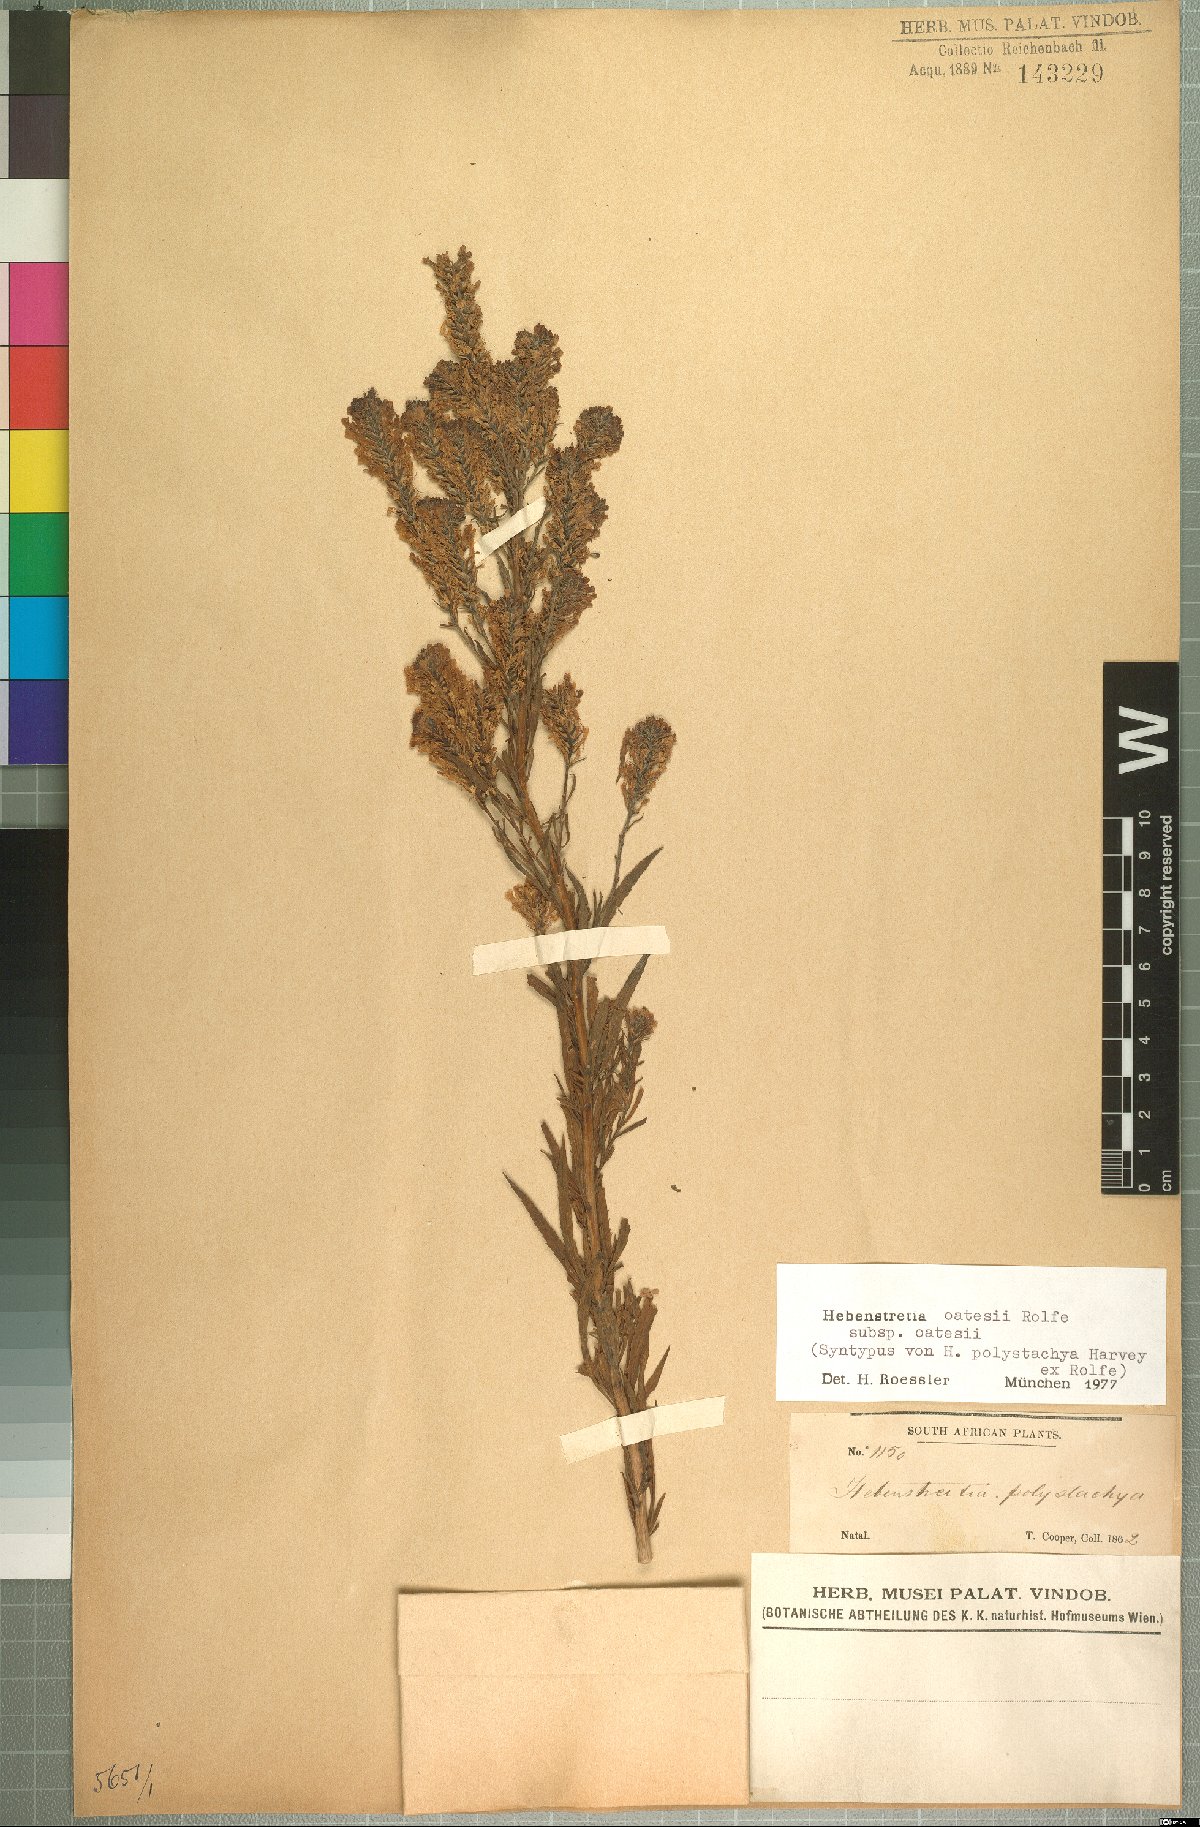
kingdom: Plantae
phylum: Tracheophyta
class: Magnoliopsida
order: Lamiales
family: Scrophulariaceae
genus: Hebenstretia
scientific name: Hebenstretia oatesii
